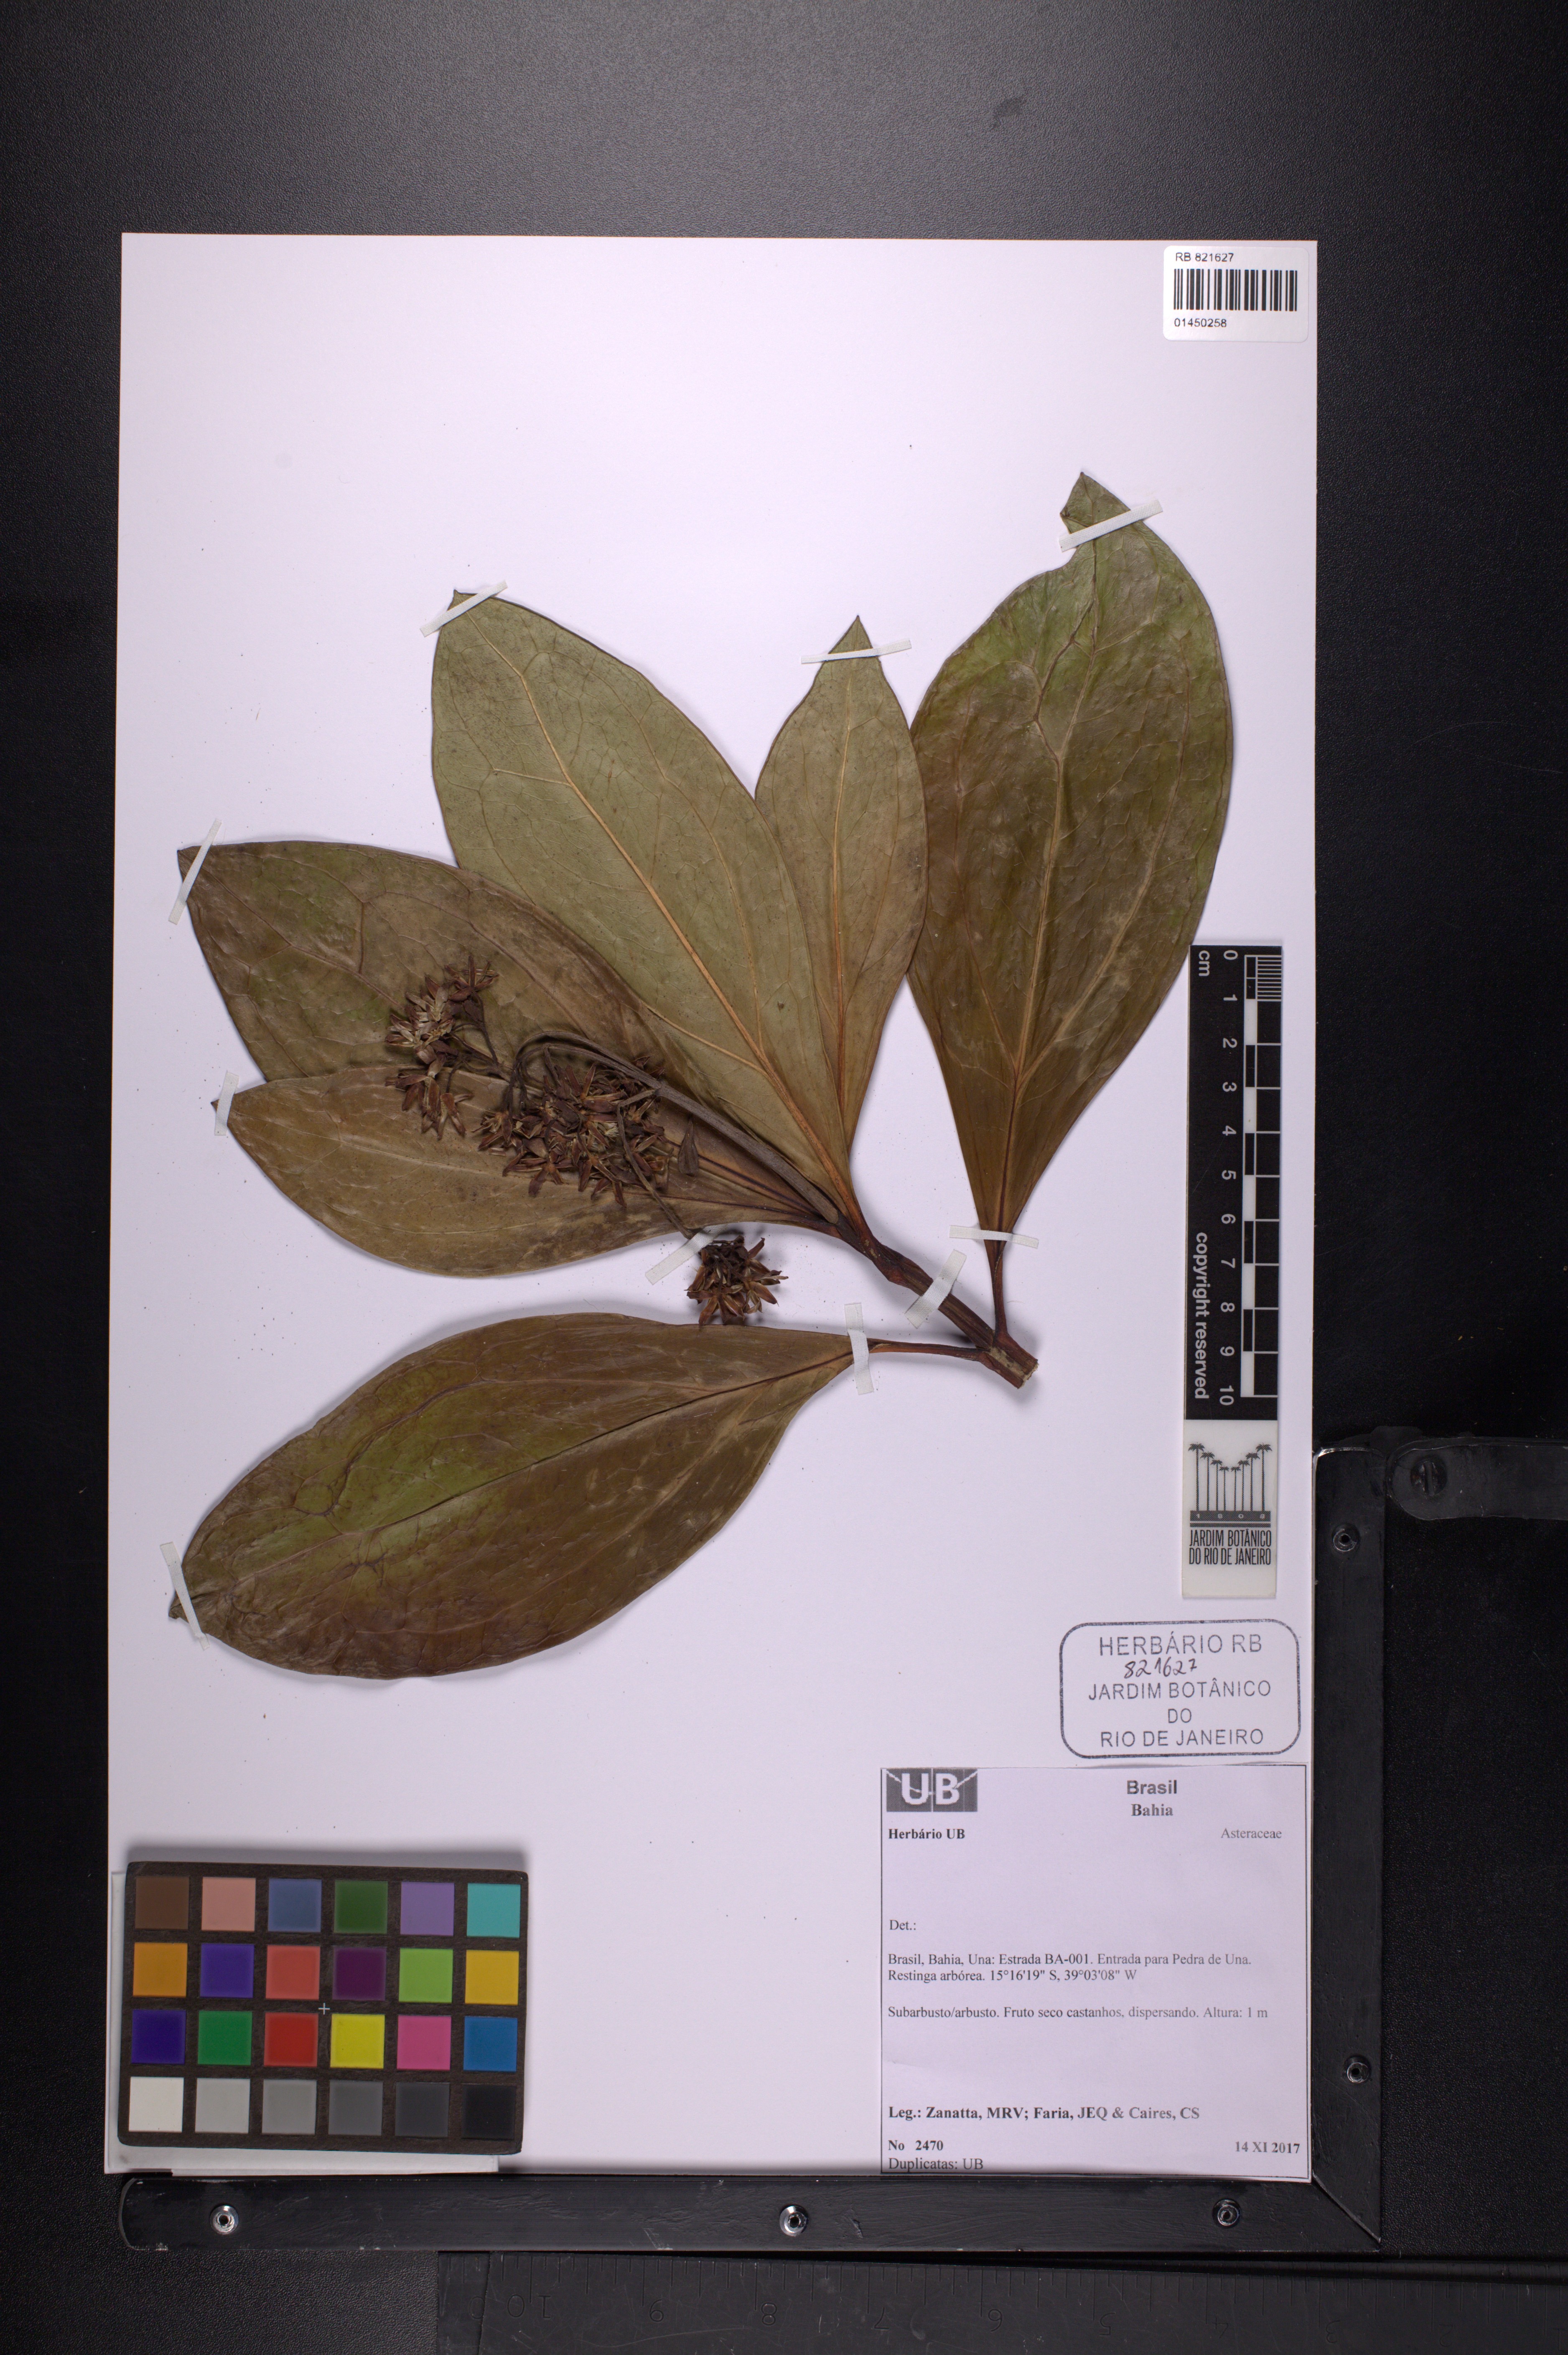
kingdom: Plantae
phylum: Tracheophyta
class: Magnoliopsida
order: Asterales
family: Asteraceae
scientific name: Asteraceae
